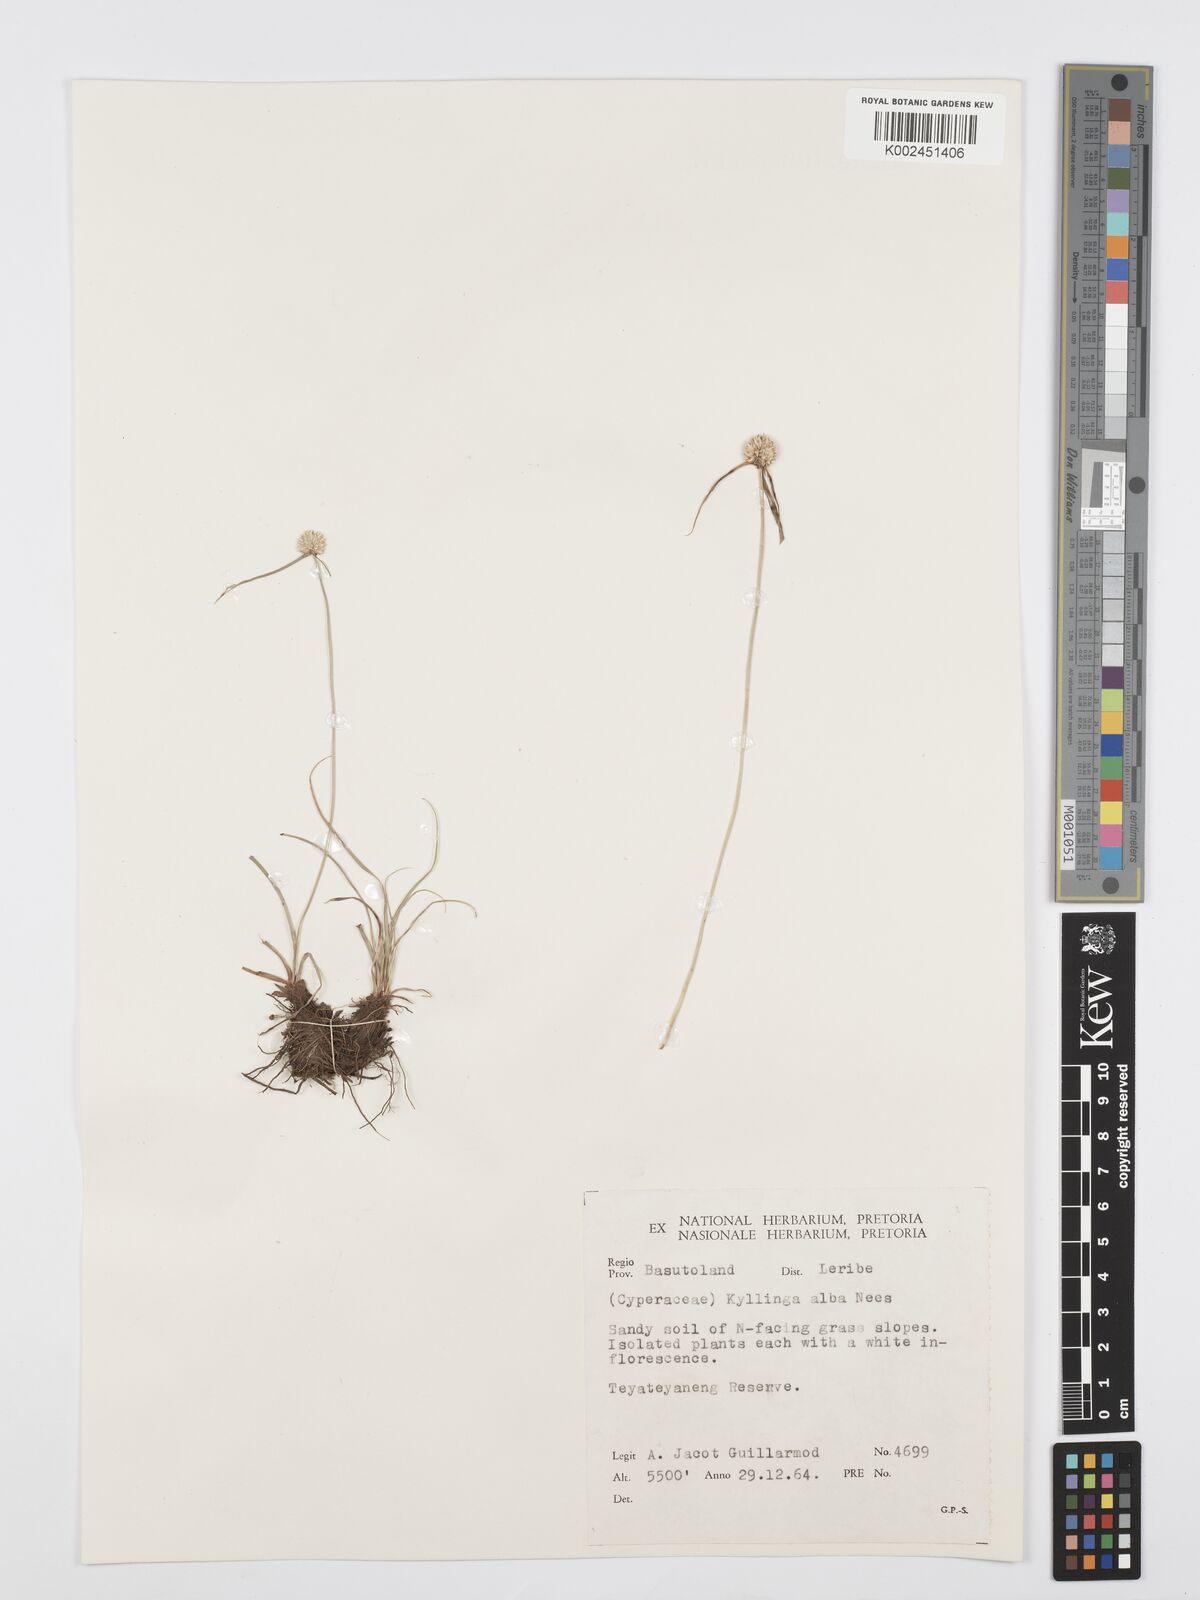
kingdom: Plantae
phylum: Tracheophyta
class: Liliopsida
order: Poales
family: Cyperaceae
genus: Cyperus
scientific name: Cyperus alatus
